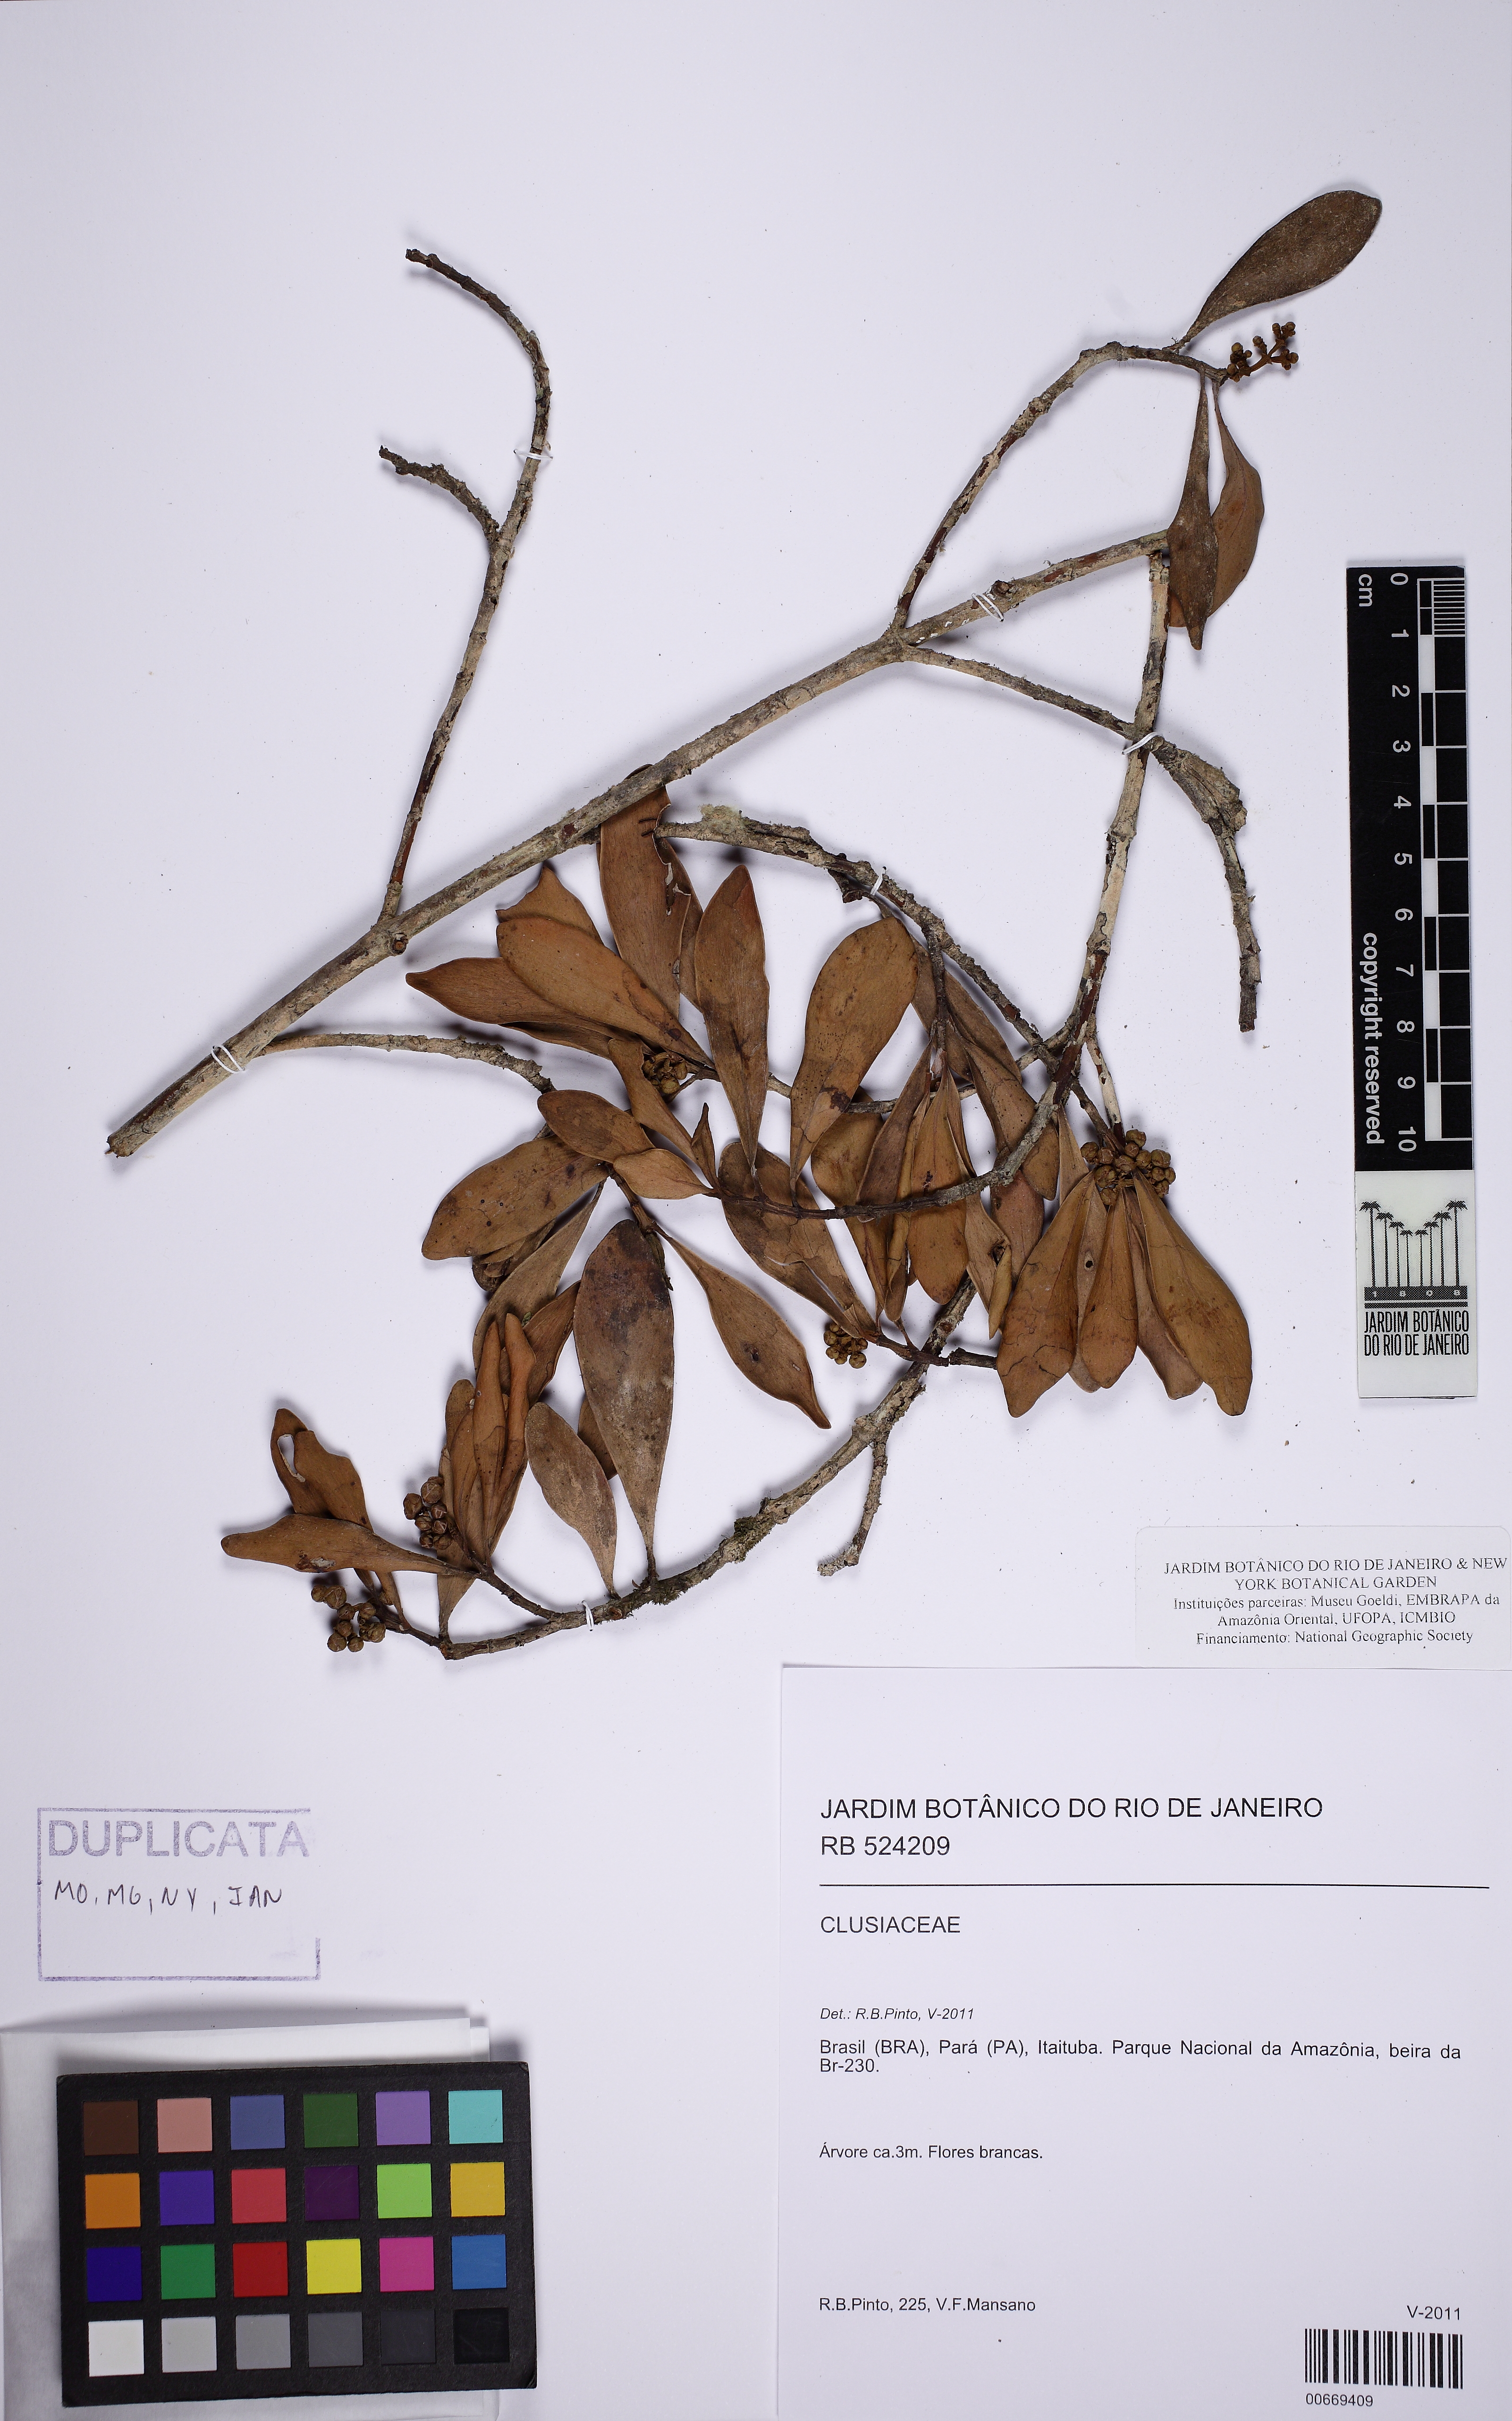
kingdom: Plantae
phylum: Tracheophyta
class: Magnoliopsida
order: Malpighiales
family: Clusiaceae
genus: Clusia
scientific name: Clusia panapanari
